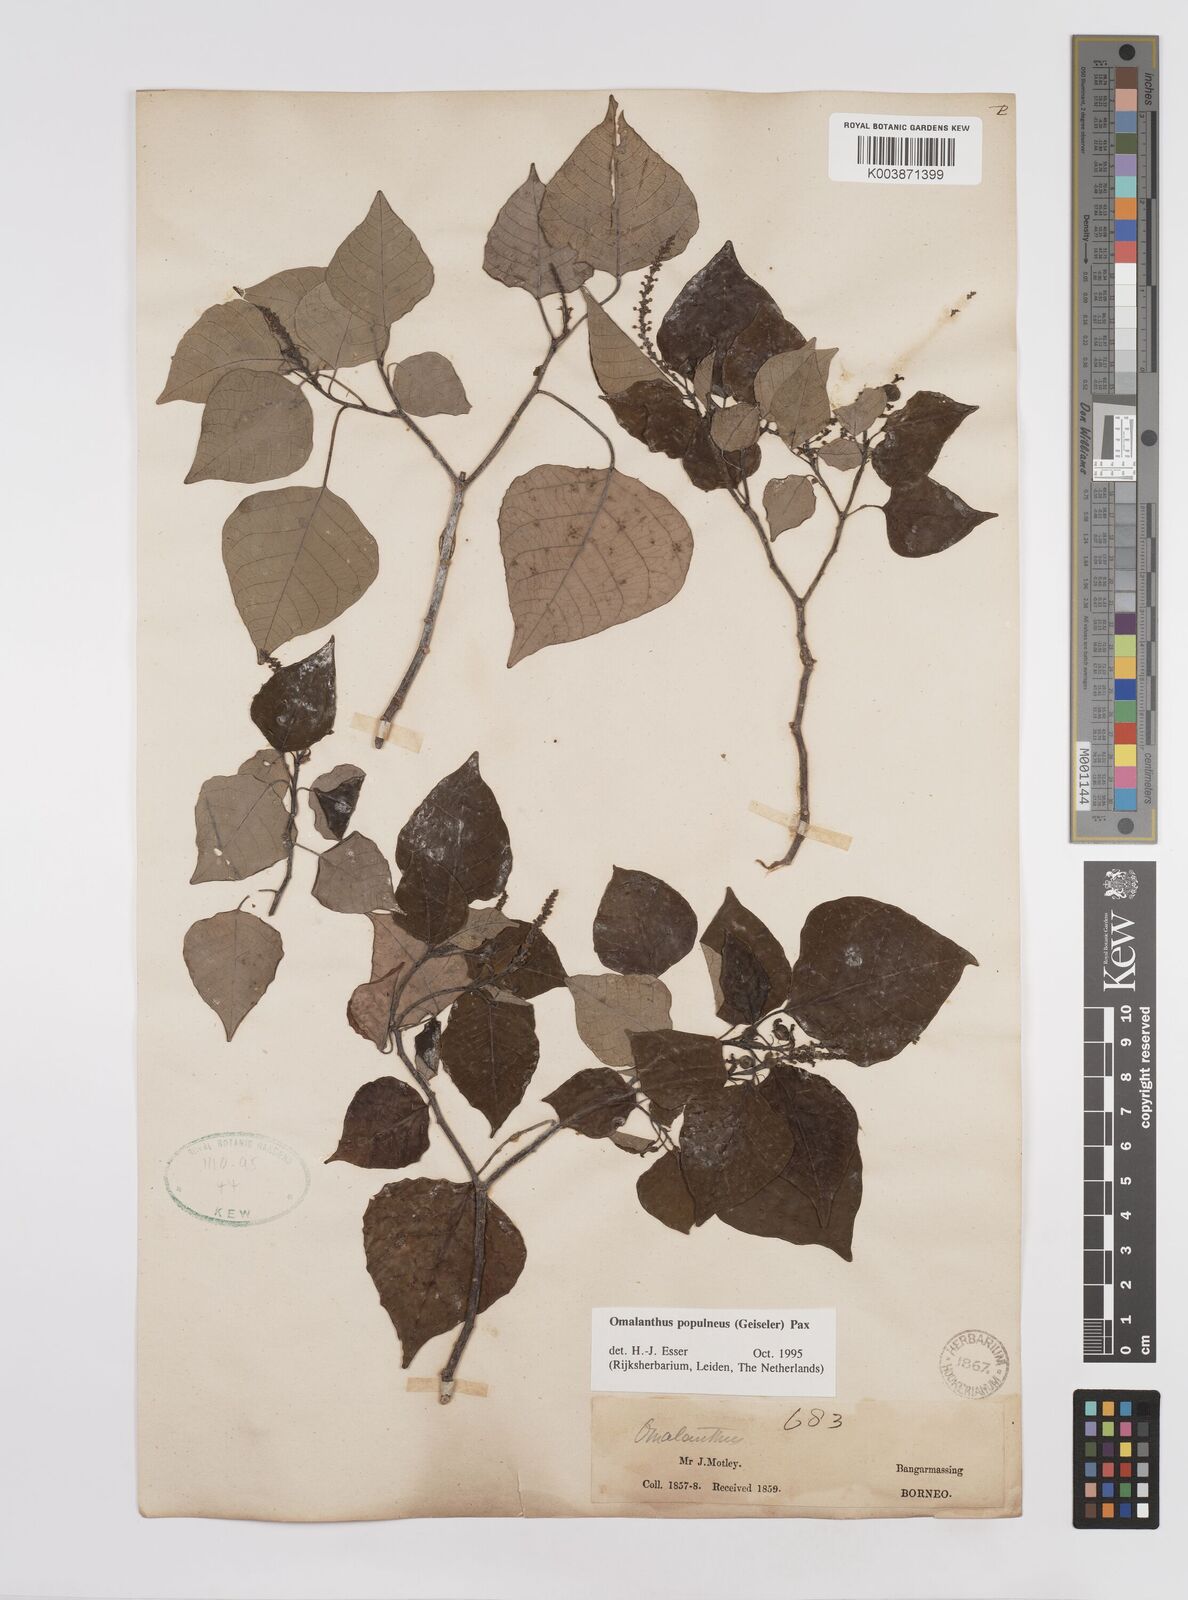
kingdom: Plantae
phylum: Tracheophyta
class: Magnoliopsida
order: Malpighiales
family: Euphorbiaceae
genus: Homalanthus
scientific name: Homalanthus populneus
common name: Spurge
